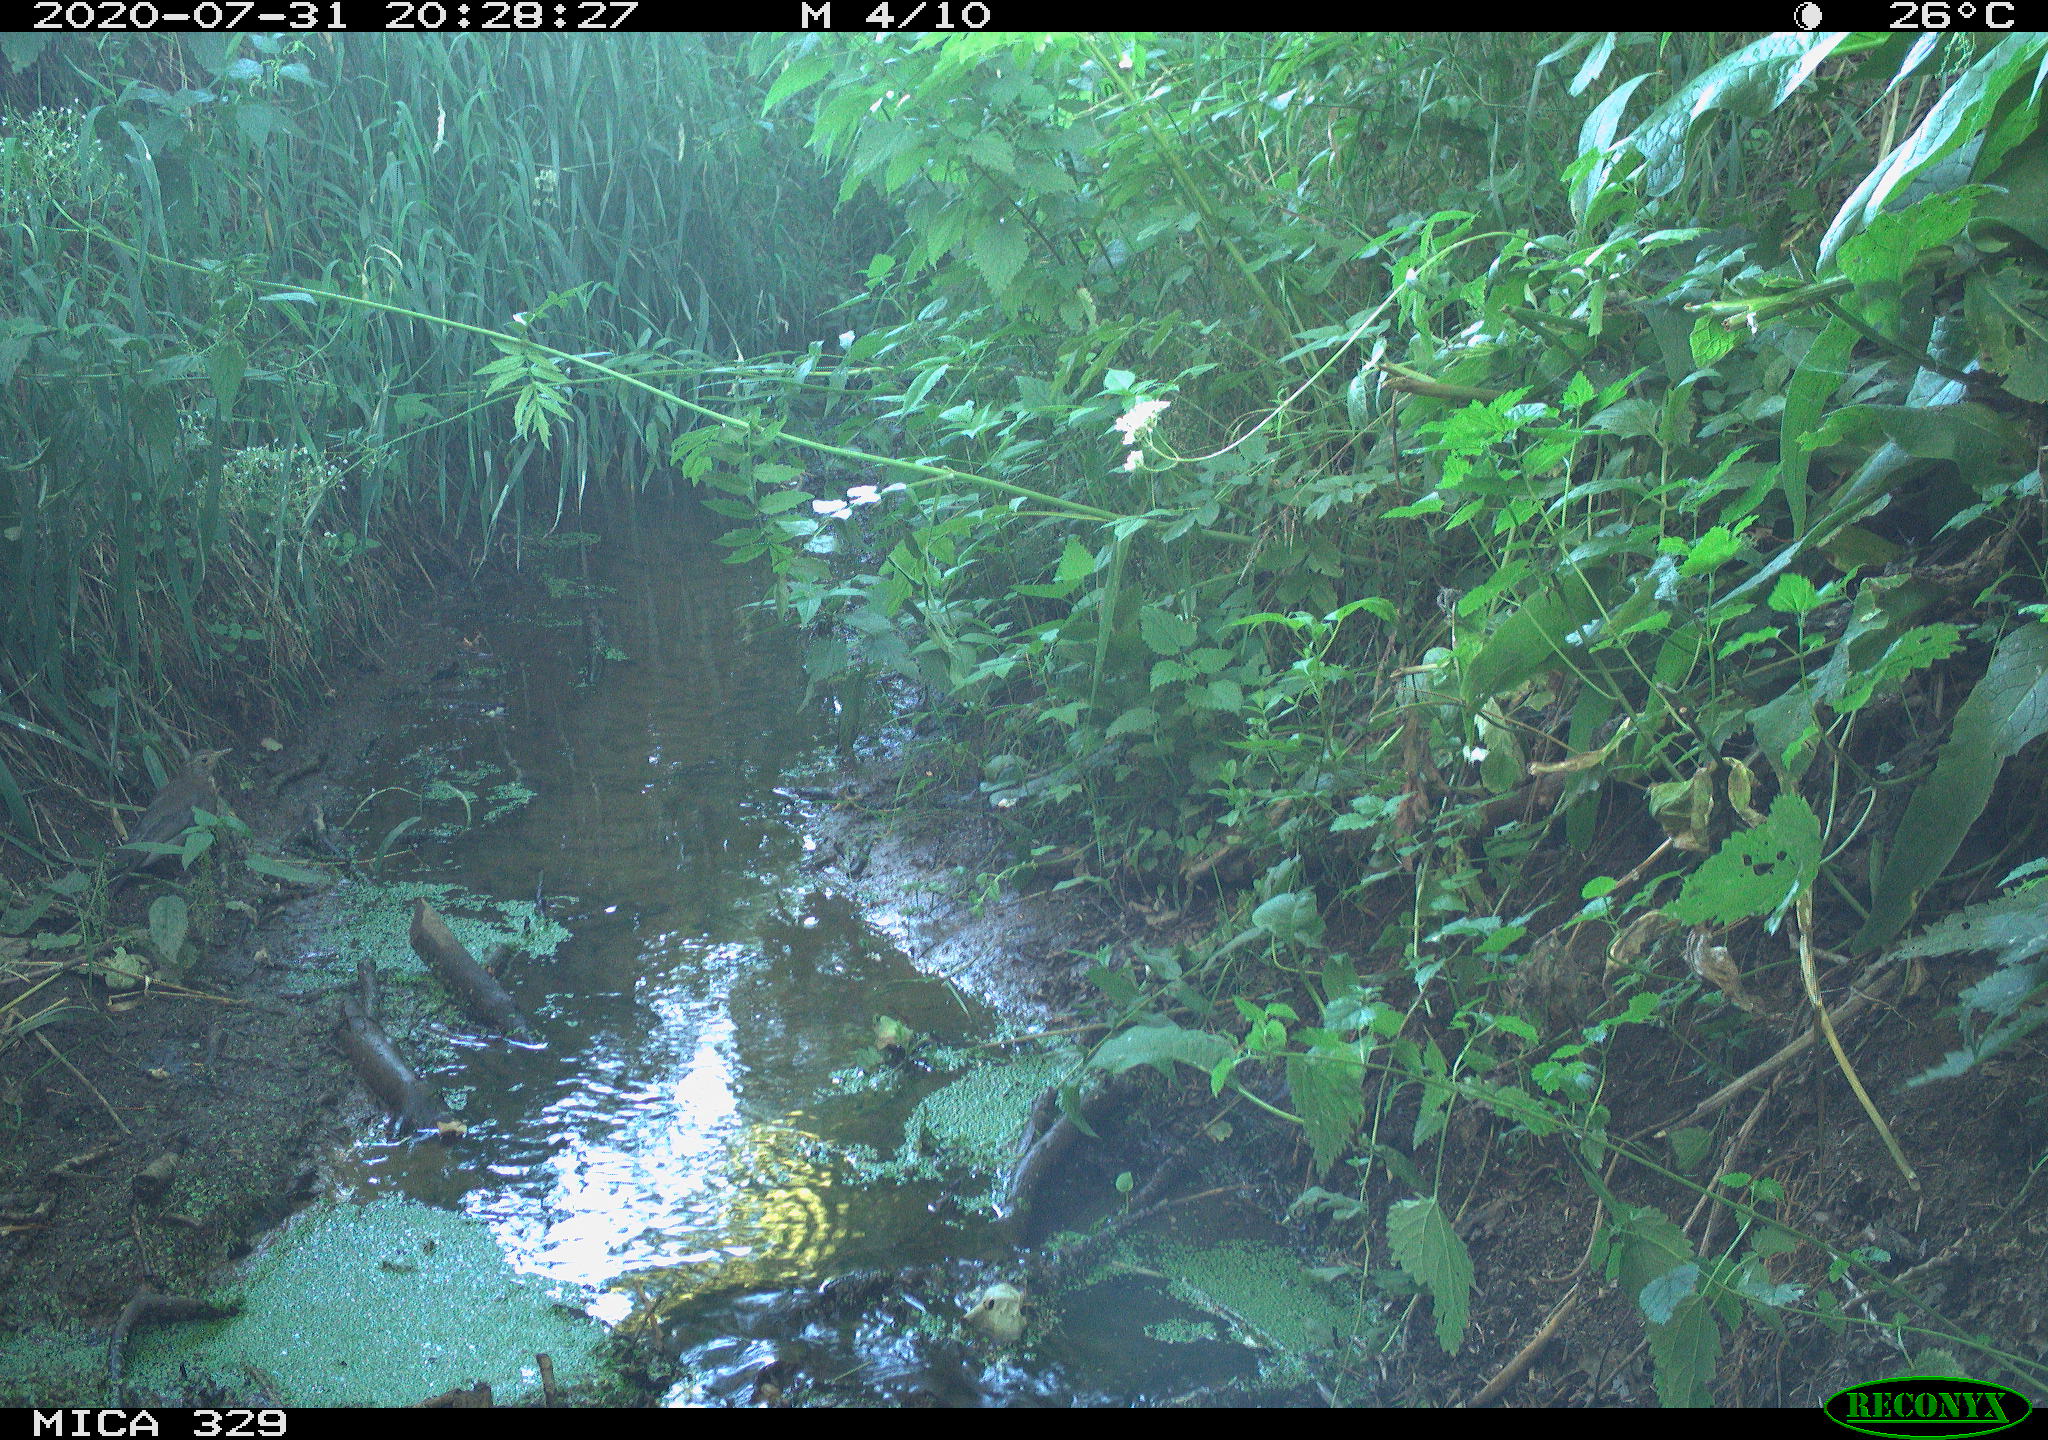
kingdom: Animalia
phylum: Chordata
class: Aves
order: Passeriformes
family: Turdidae
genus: Turdus
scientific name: Turdus philomelos
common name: Song thrush
